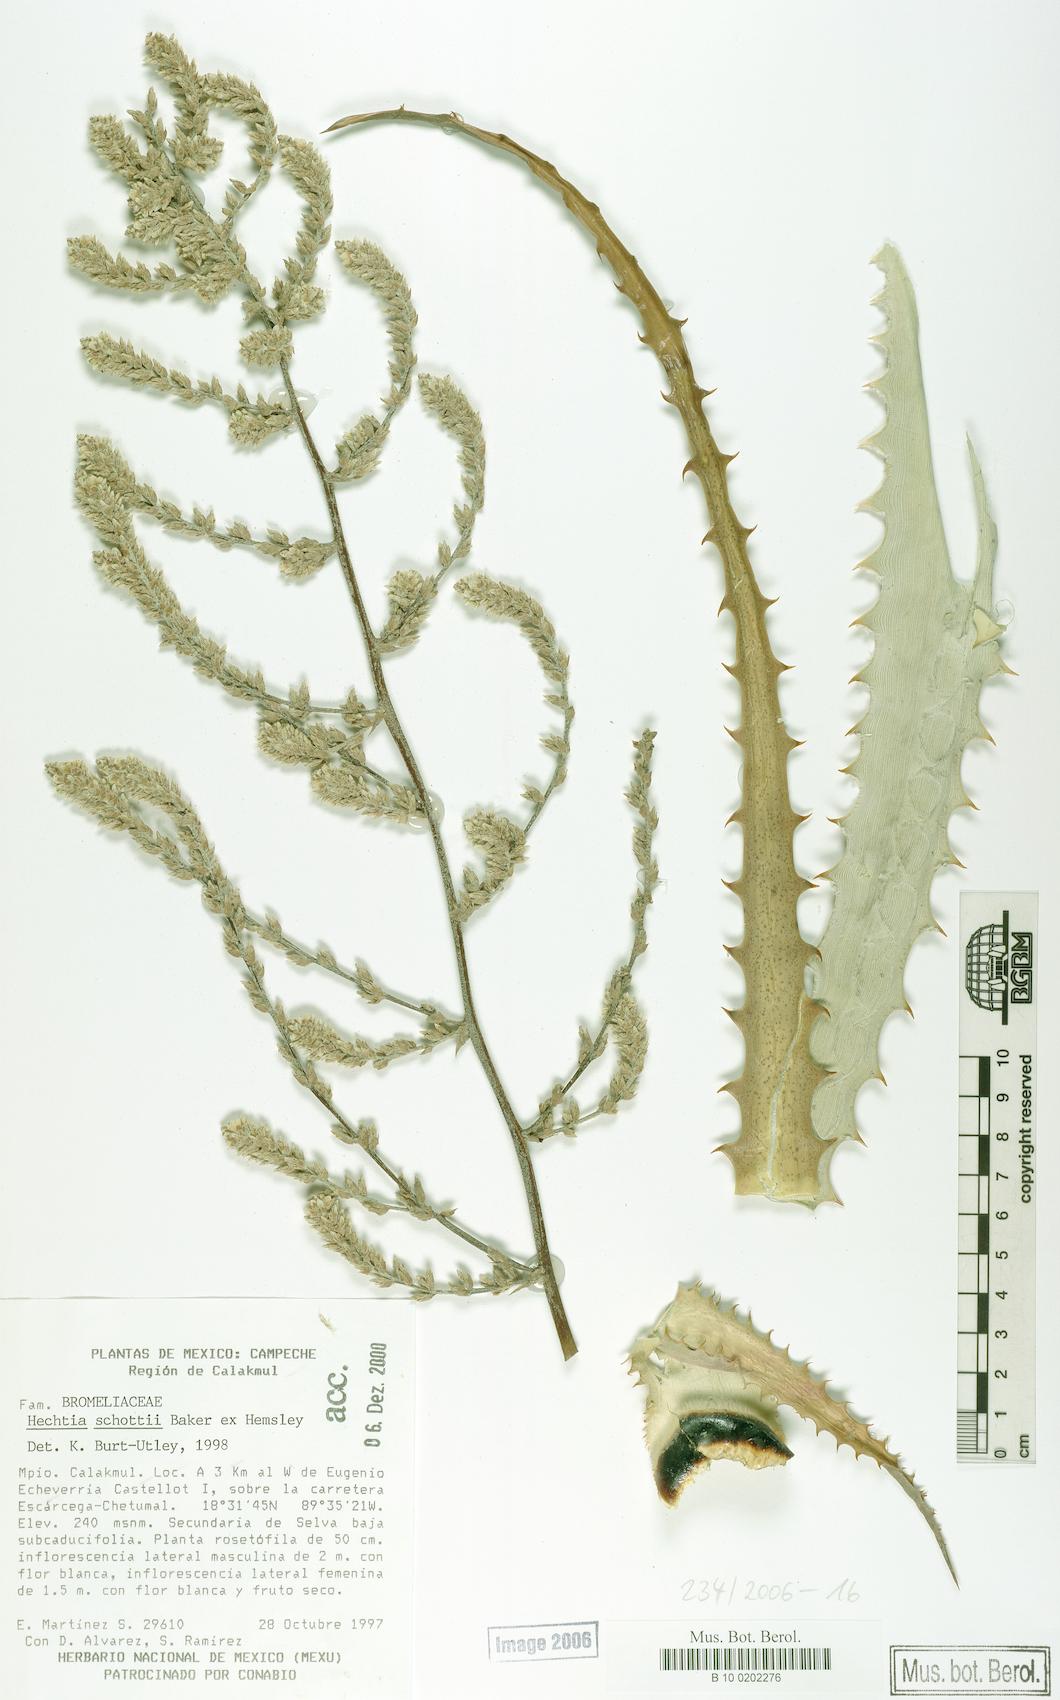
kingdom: Plantae
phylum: Tracheophyta
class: Liliopsida
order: Poales
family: Bromeliaceae
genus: Hechtia
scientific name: Hechtia schottii
